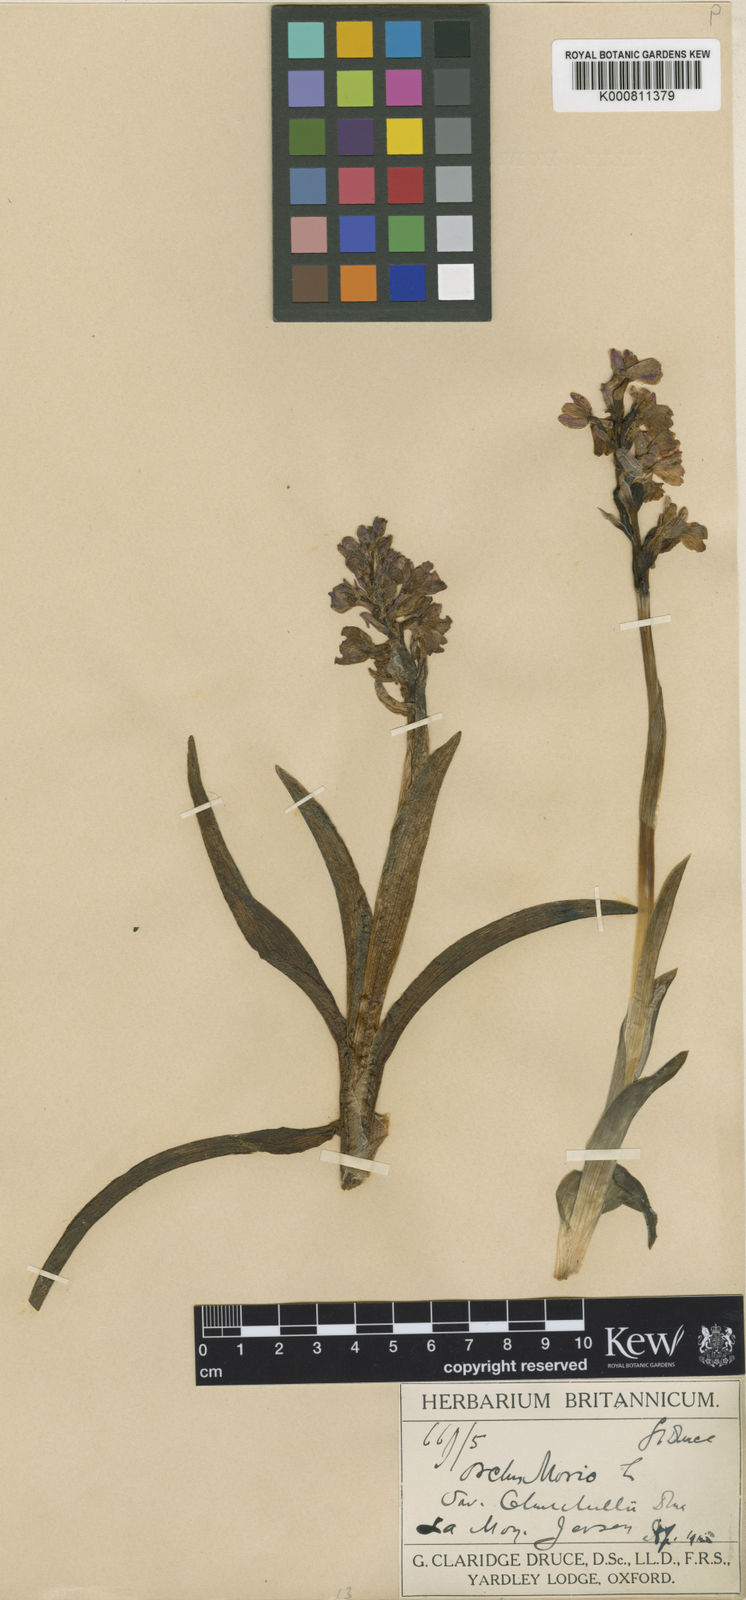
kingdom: Plantae
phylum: Tracheophyta
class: Liliopsida
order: Asparagales
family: Orchidaceae
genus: Anacamptis
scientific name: Anacamptis morio
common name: Green-winged orchid
